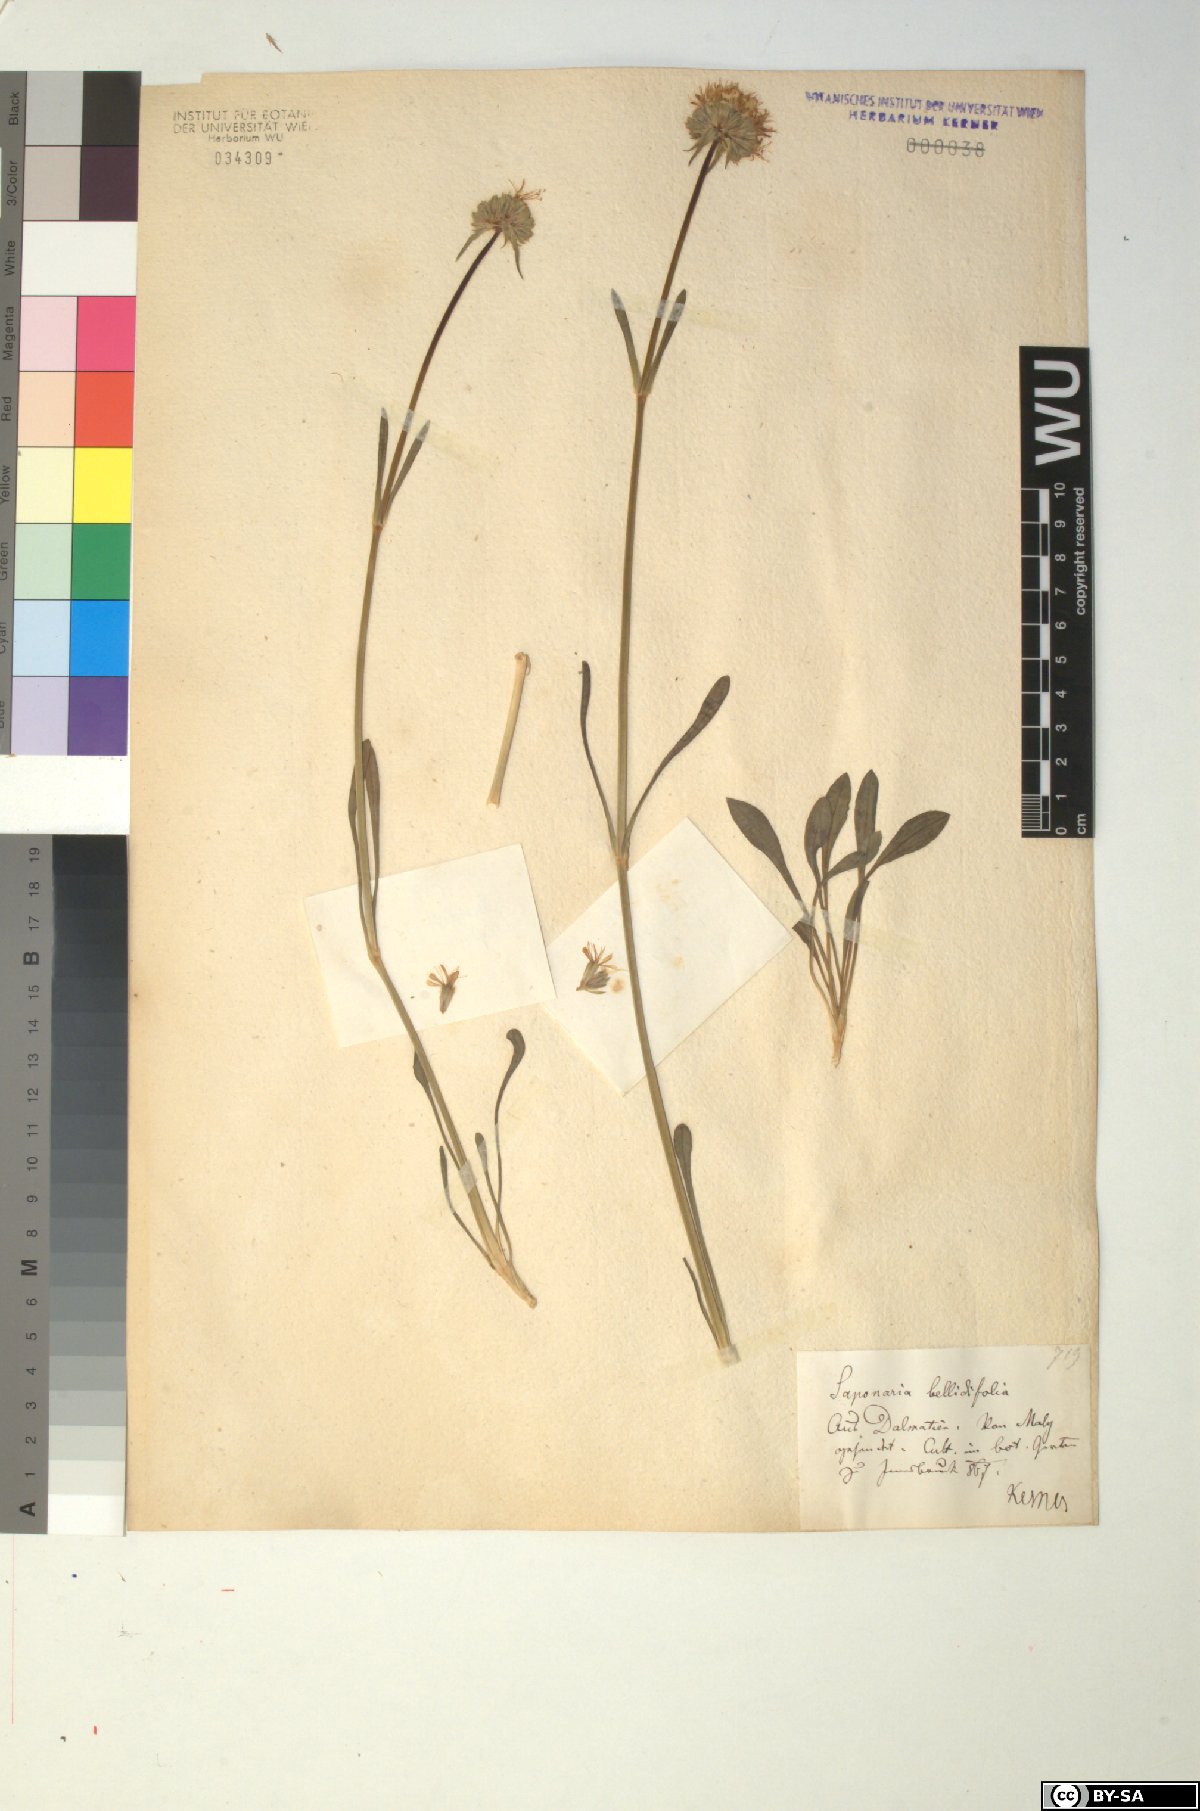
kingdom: Plantae
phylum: Tracheophyta
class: Magnoliopsida
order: Caryophyllales
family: Caryophyllaceae
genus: Saponaria
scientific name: Saponaria bellidifolia
